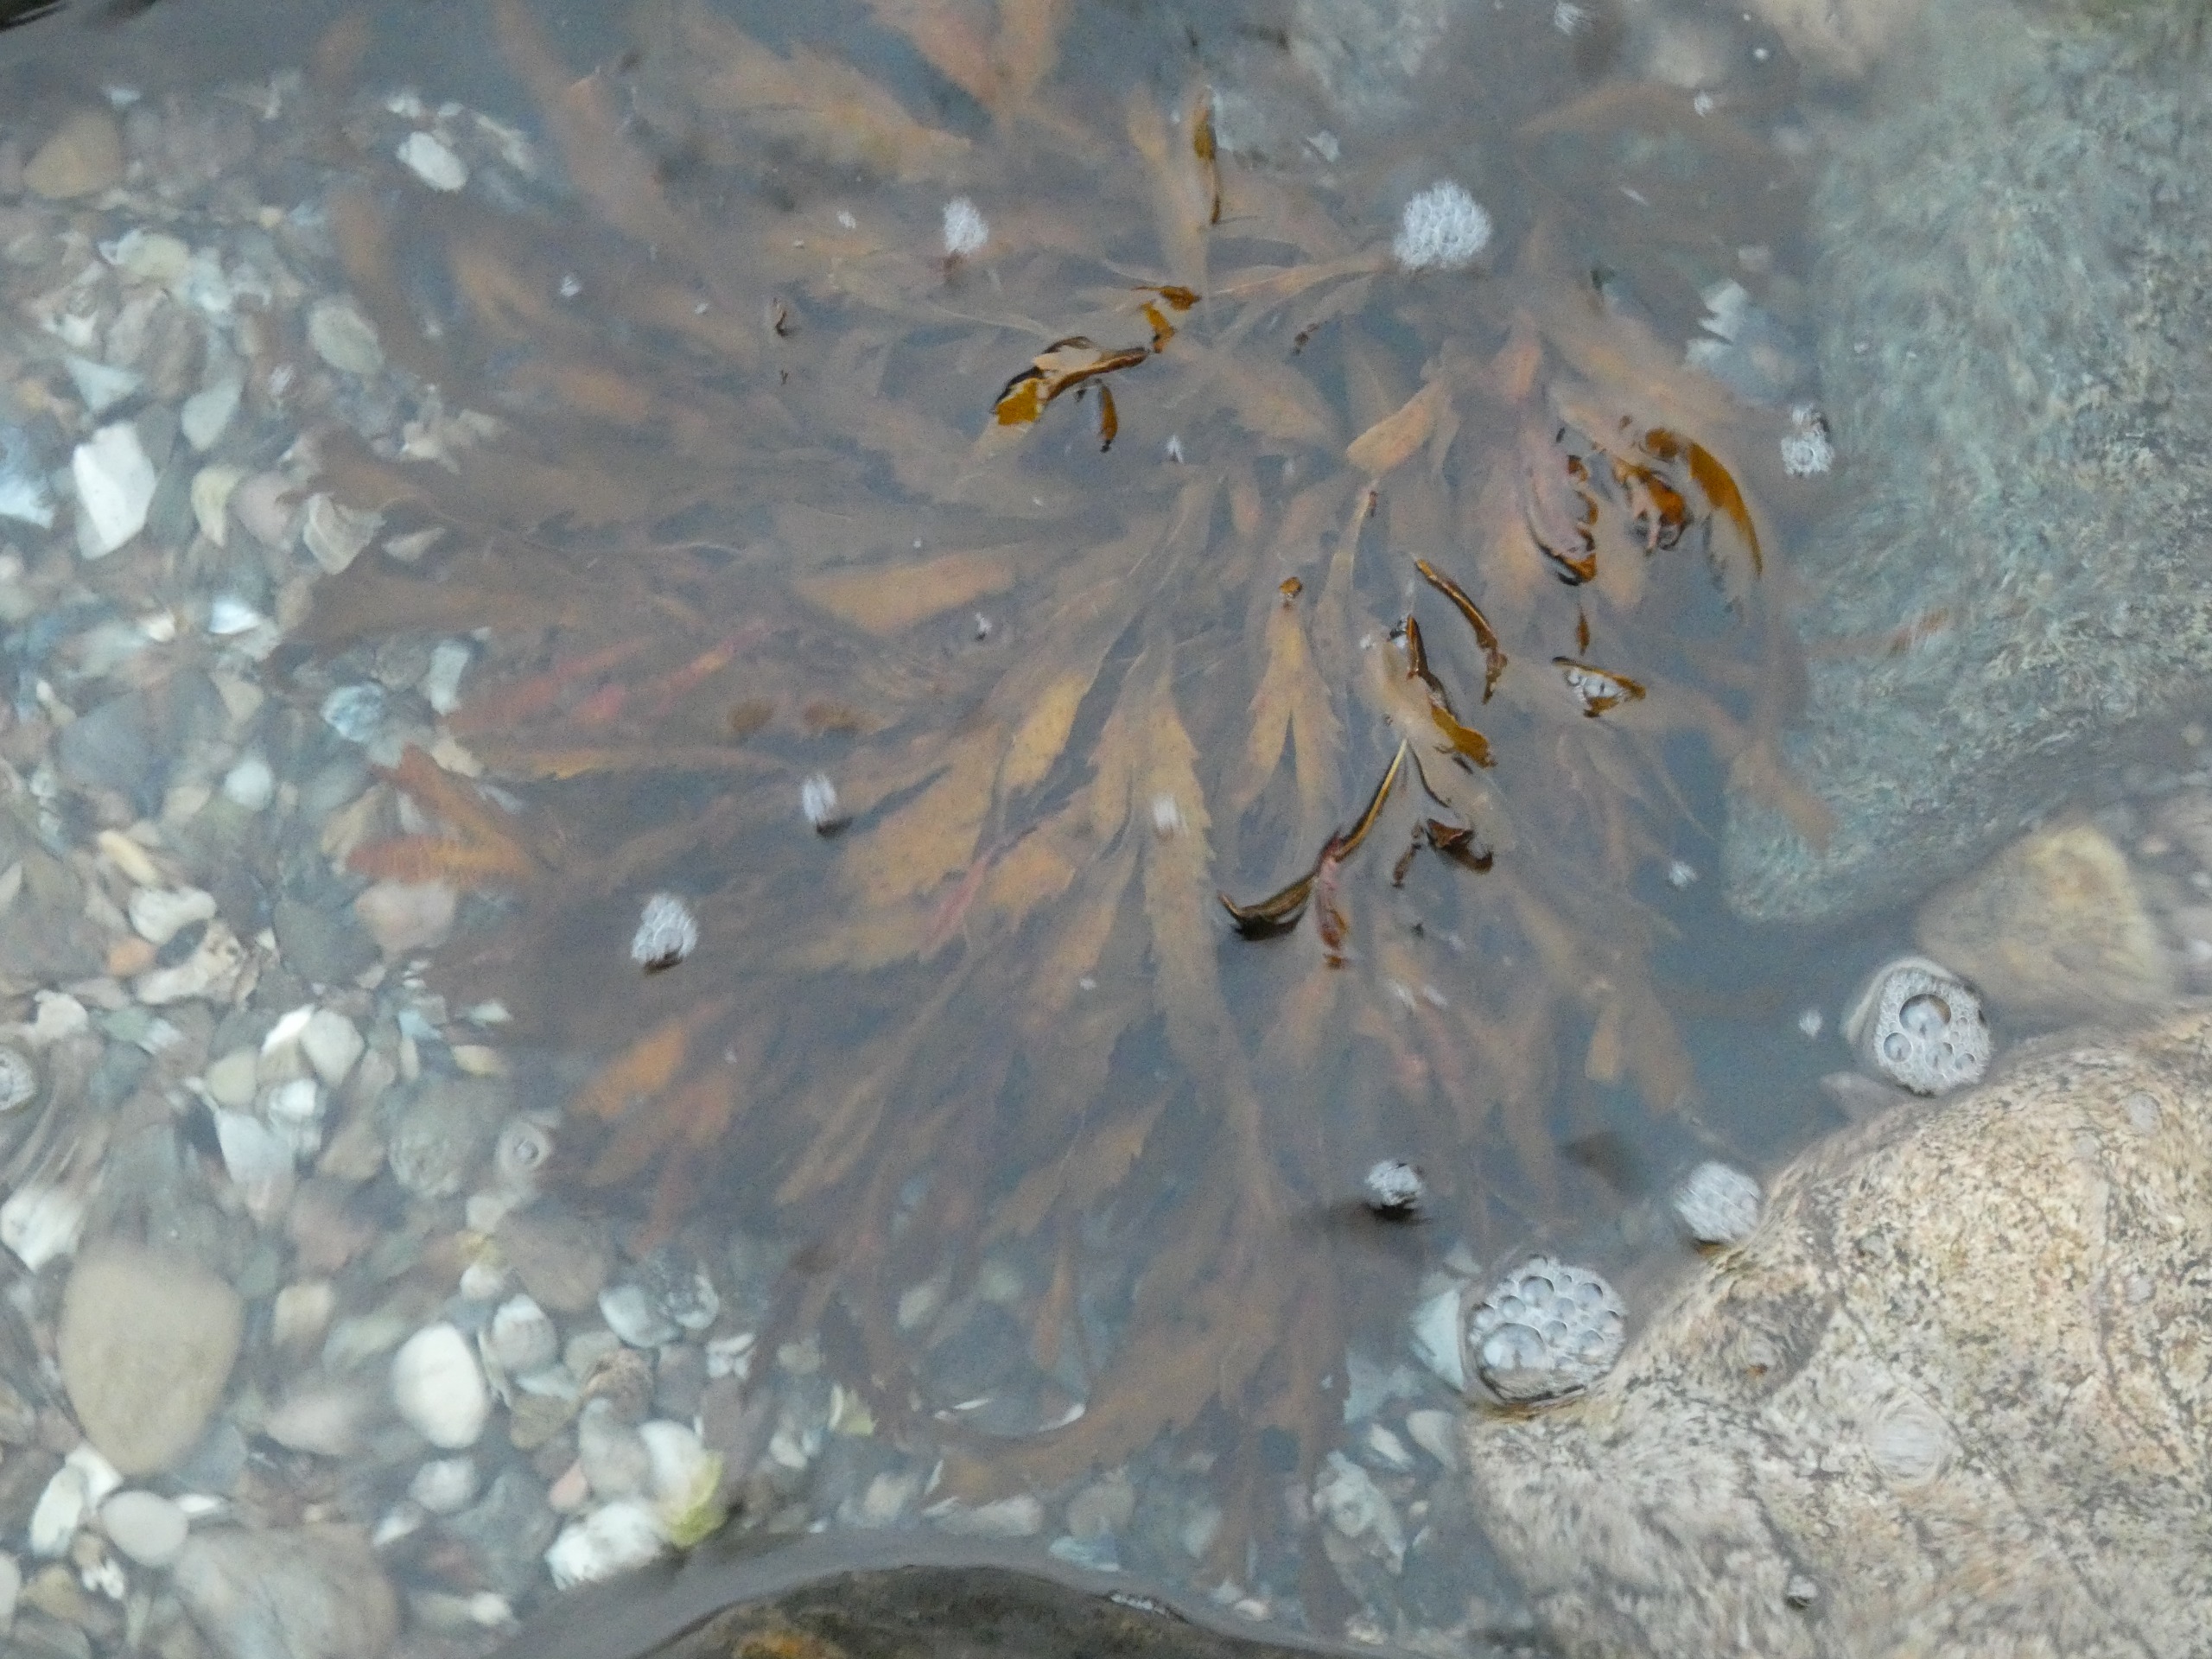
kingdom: Chromista
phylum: Ochrophyta
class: Phaeophyceae
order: Fucales
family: Fucaceae
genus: Fucus
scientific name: Fucus serratus
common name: Savtang
